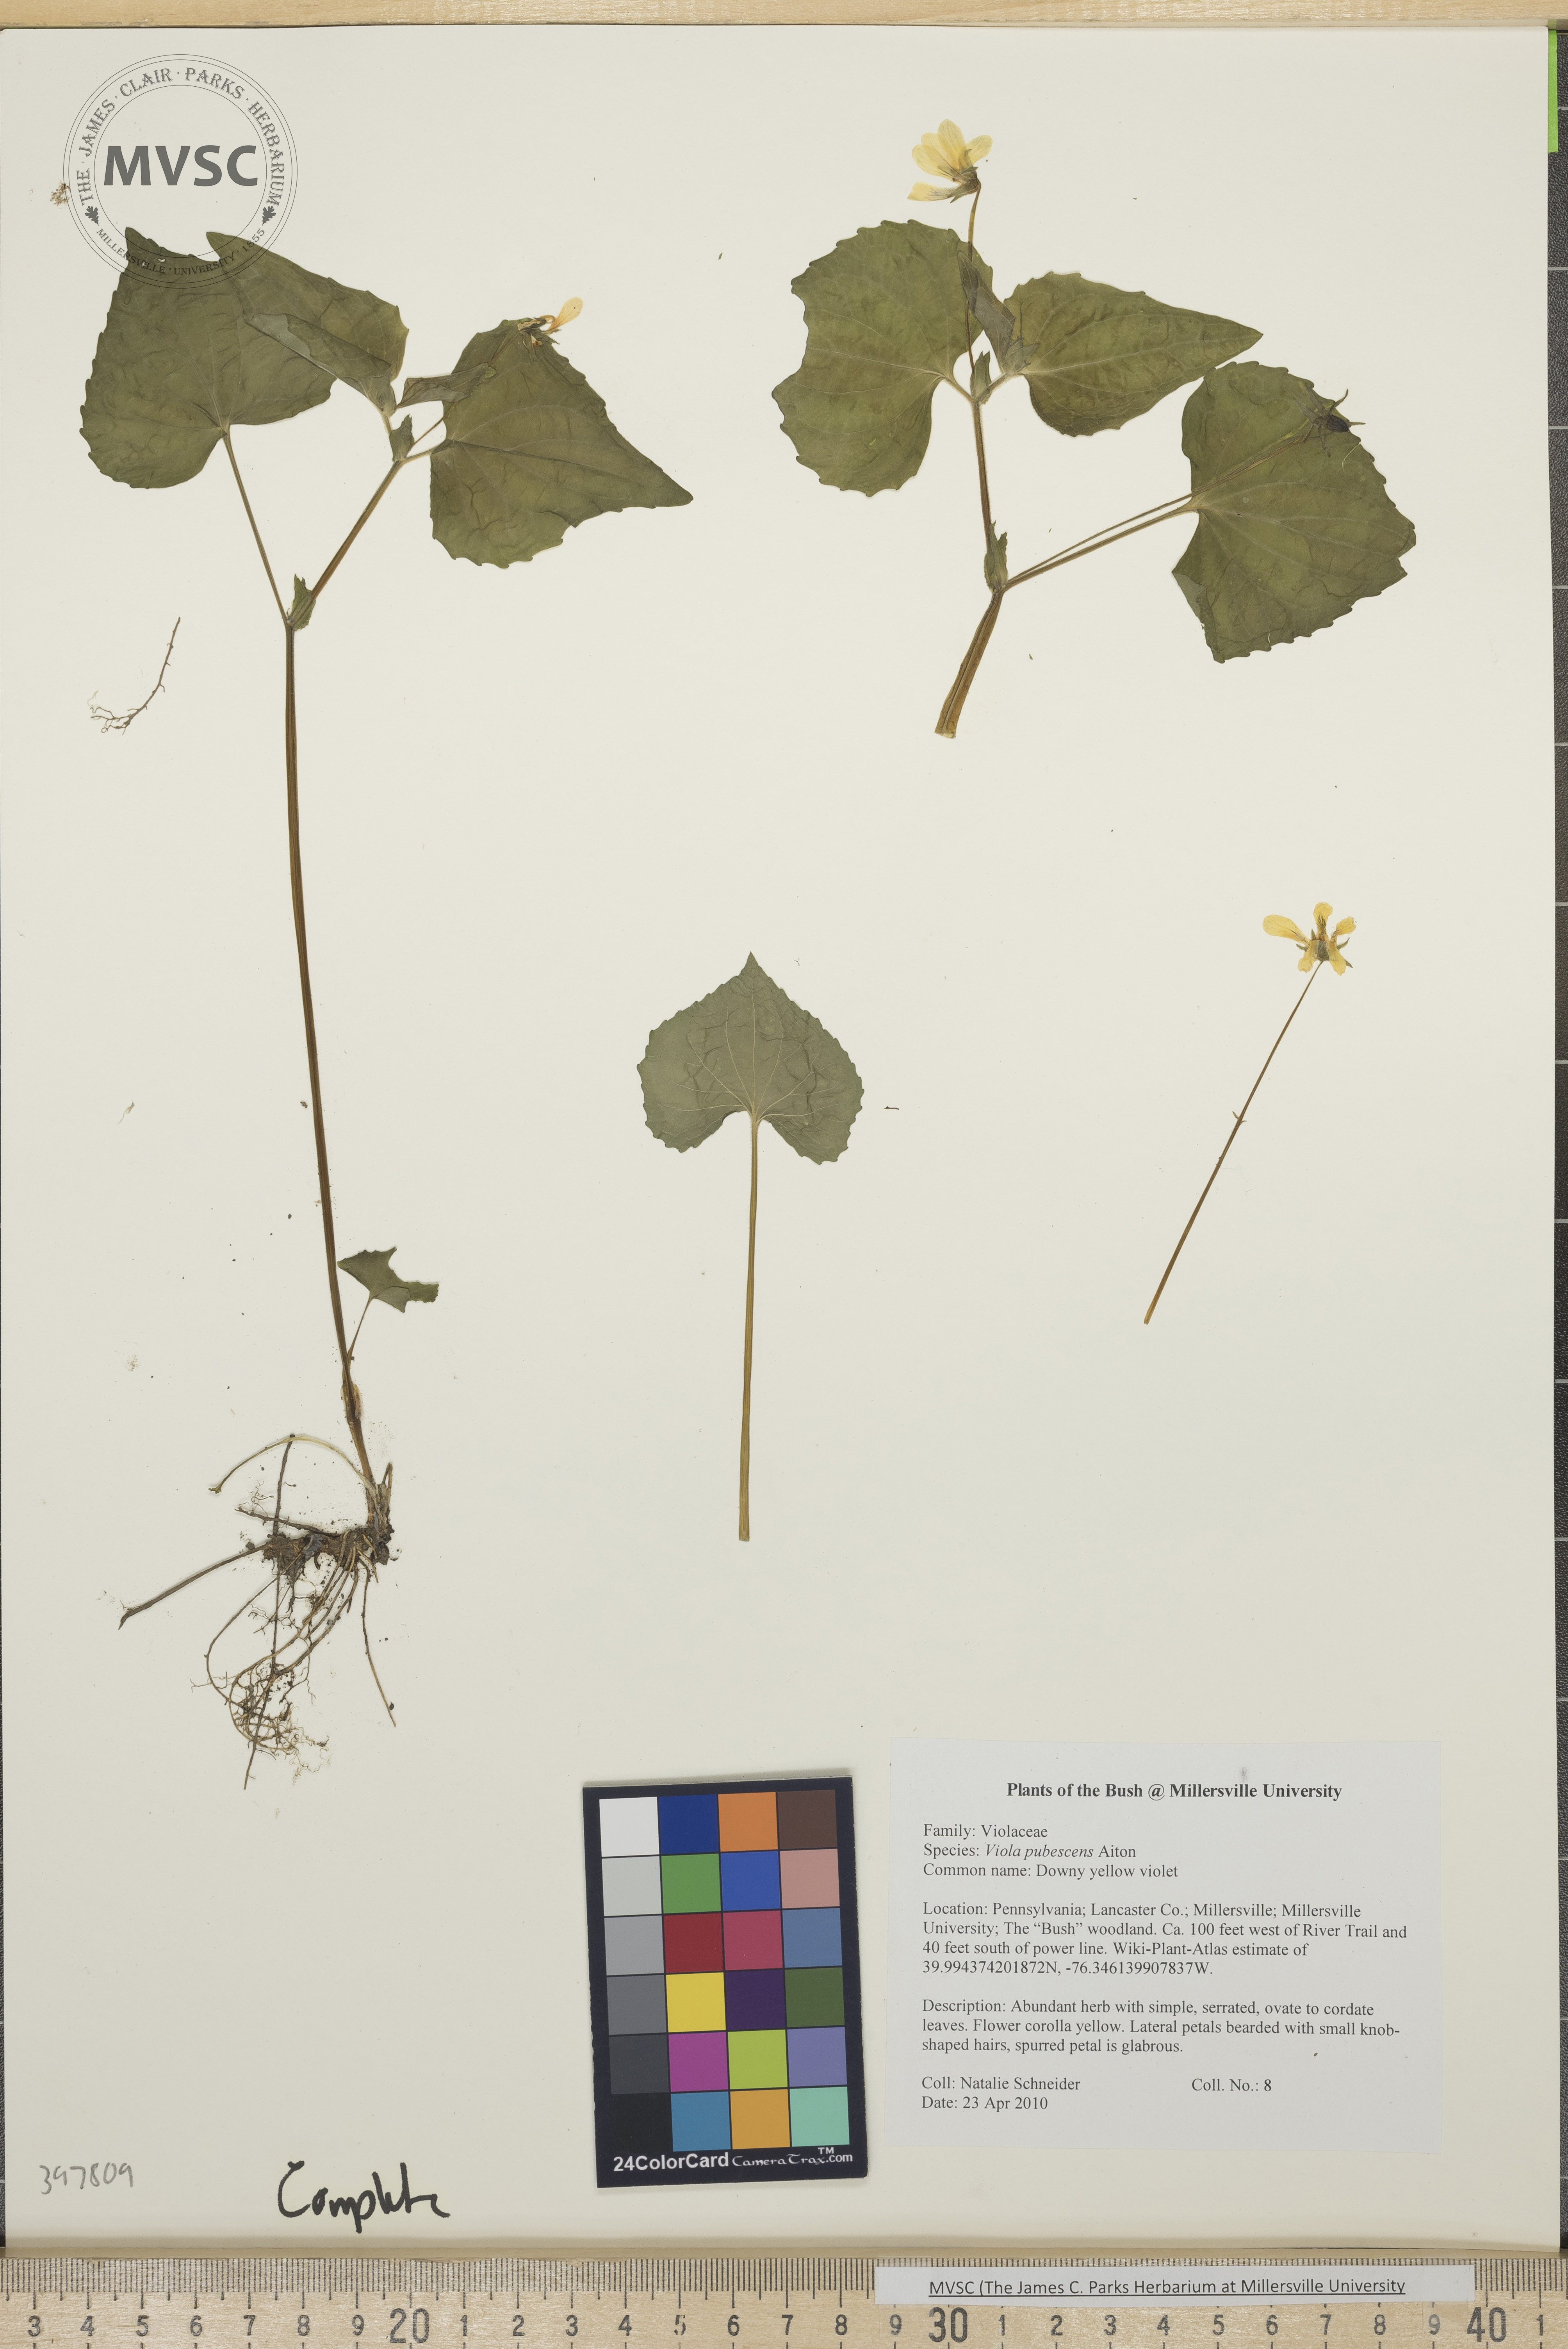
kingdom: Plantae
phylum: Tracheophyta
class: Magnoliopsida
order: Malpighiales
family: Violaceae
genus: Viola
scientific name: Viola pubescens
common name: downy yellow violet
